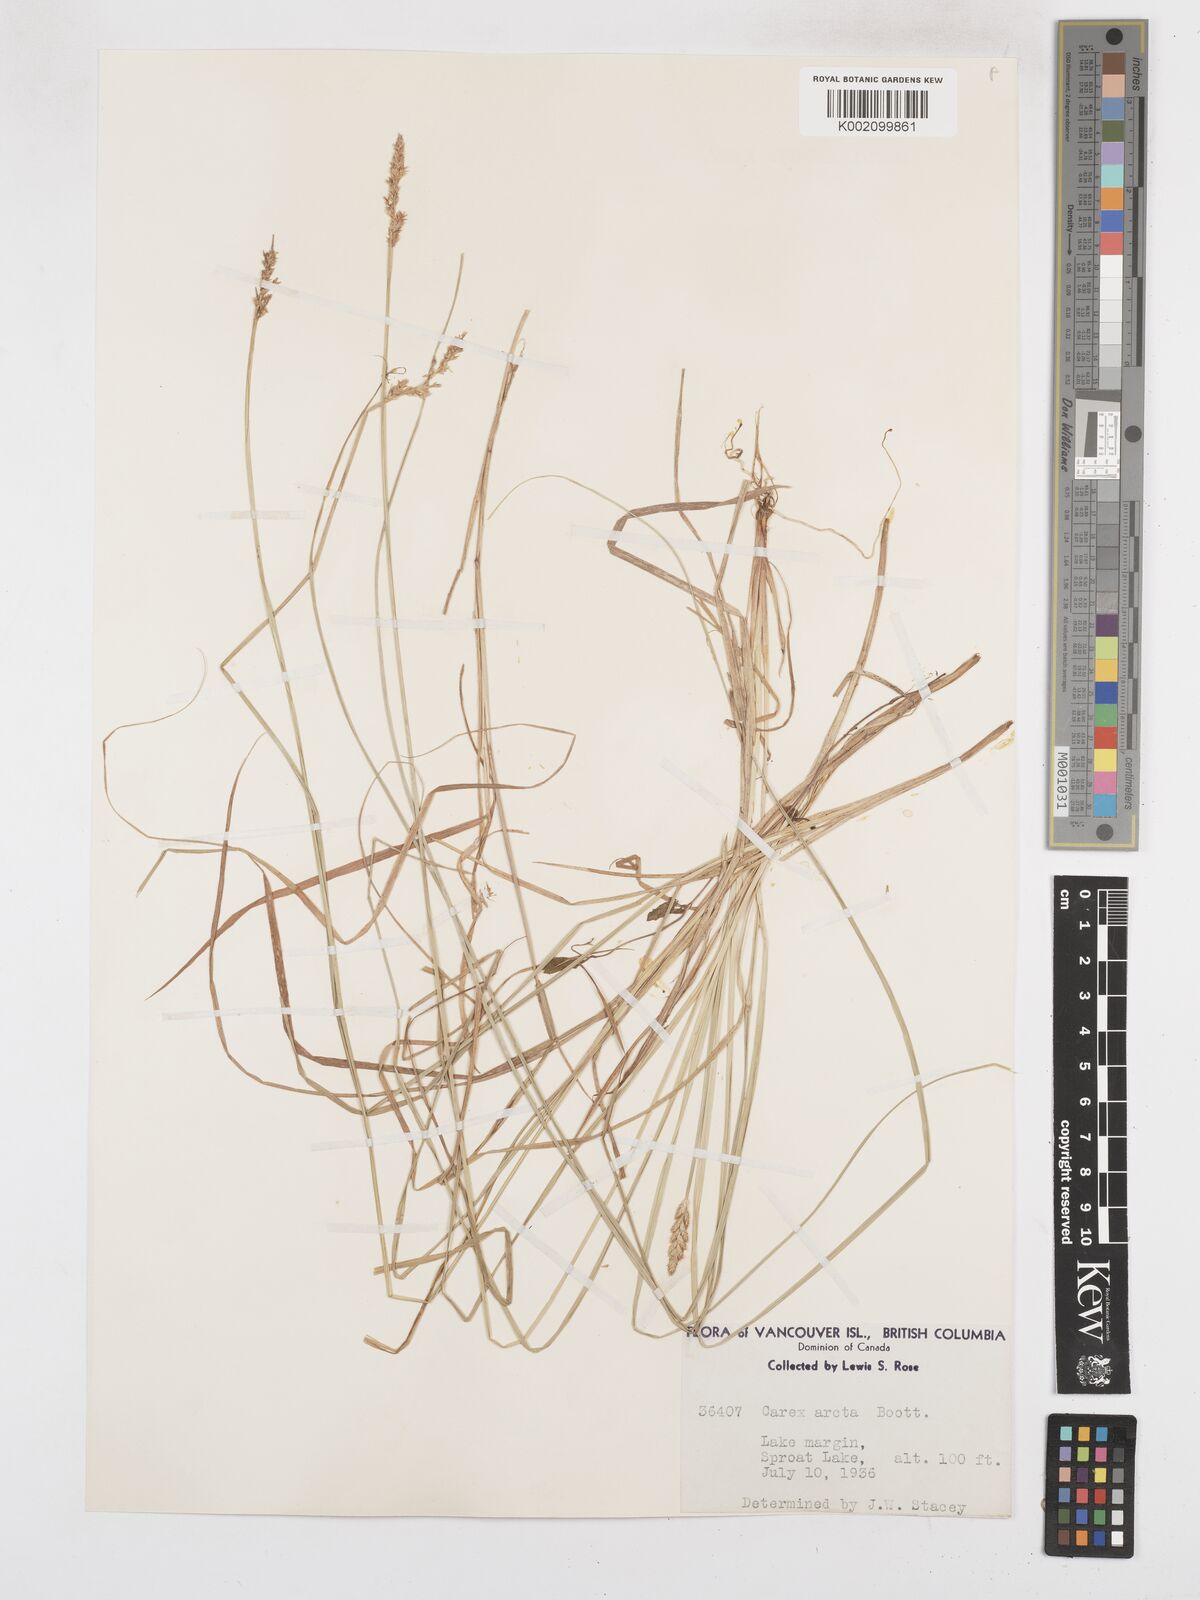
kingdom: Plantae
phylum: Tracheophyta
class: Liliopsida
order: Poales
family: Cyperaceae
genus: Carex
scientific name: Carex arcta
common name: Bear sedge
